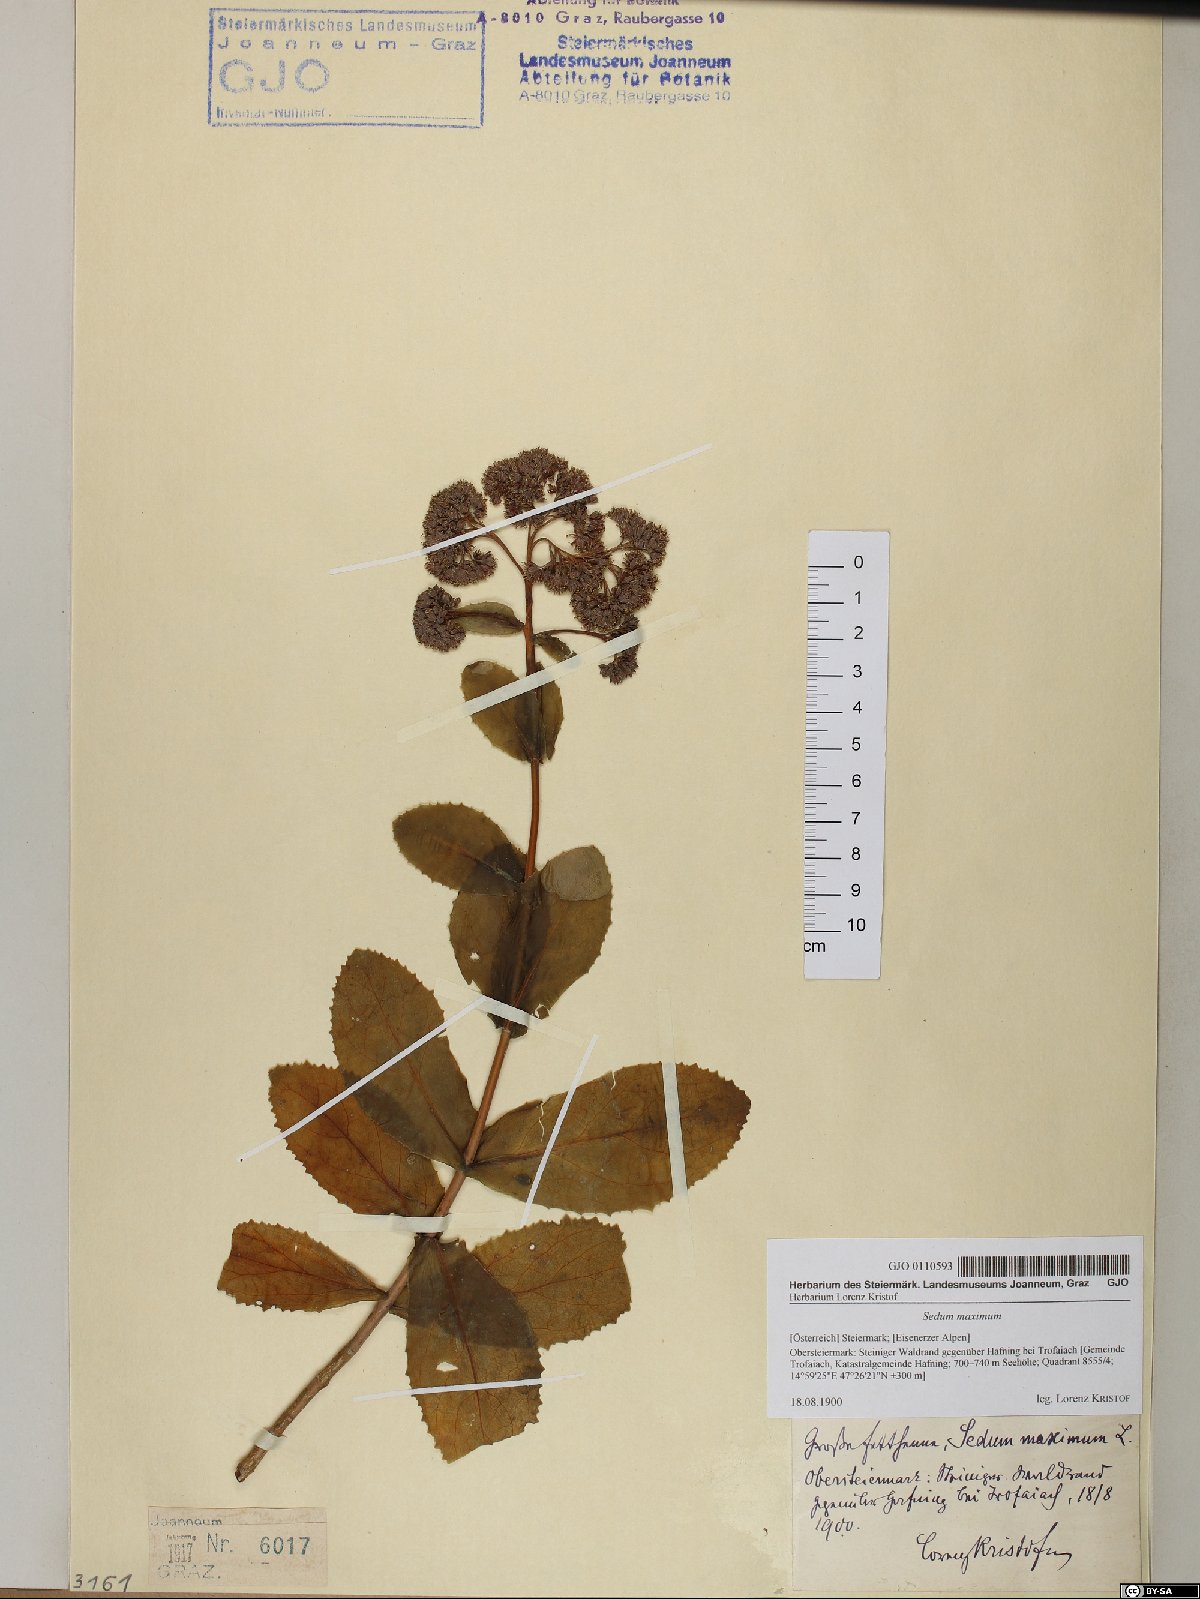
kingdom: Plantae
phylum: Tracheophyta
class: Magnoliopsida
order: Saxifragales
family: Crassulaceae
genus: Hylotelephium
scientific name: Hylotelephium maximum
